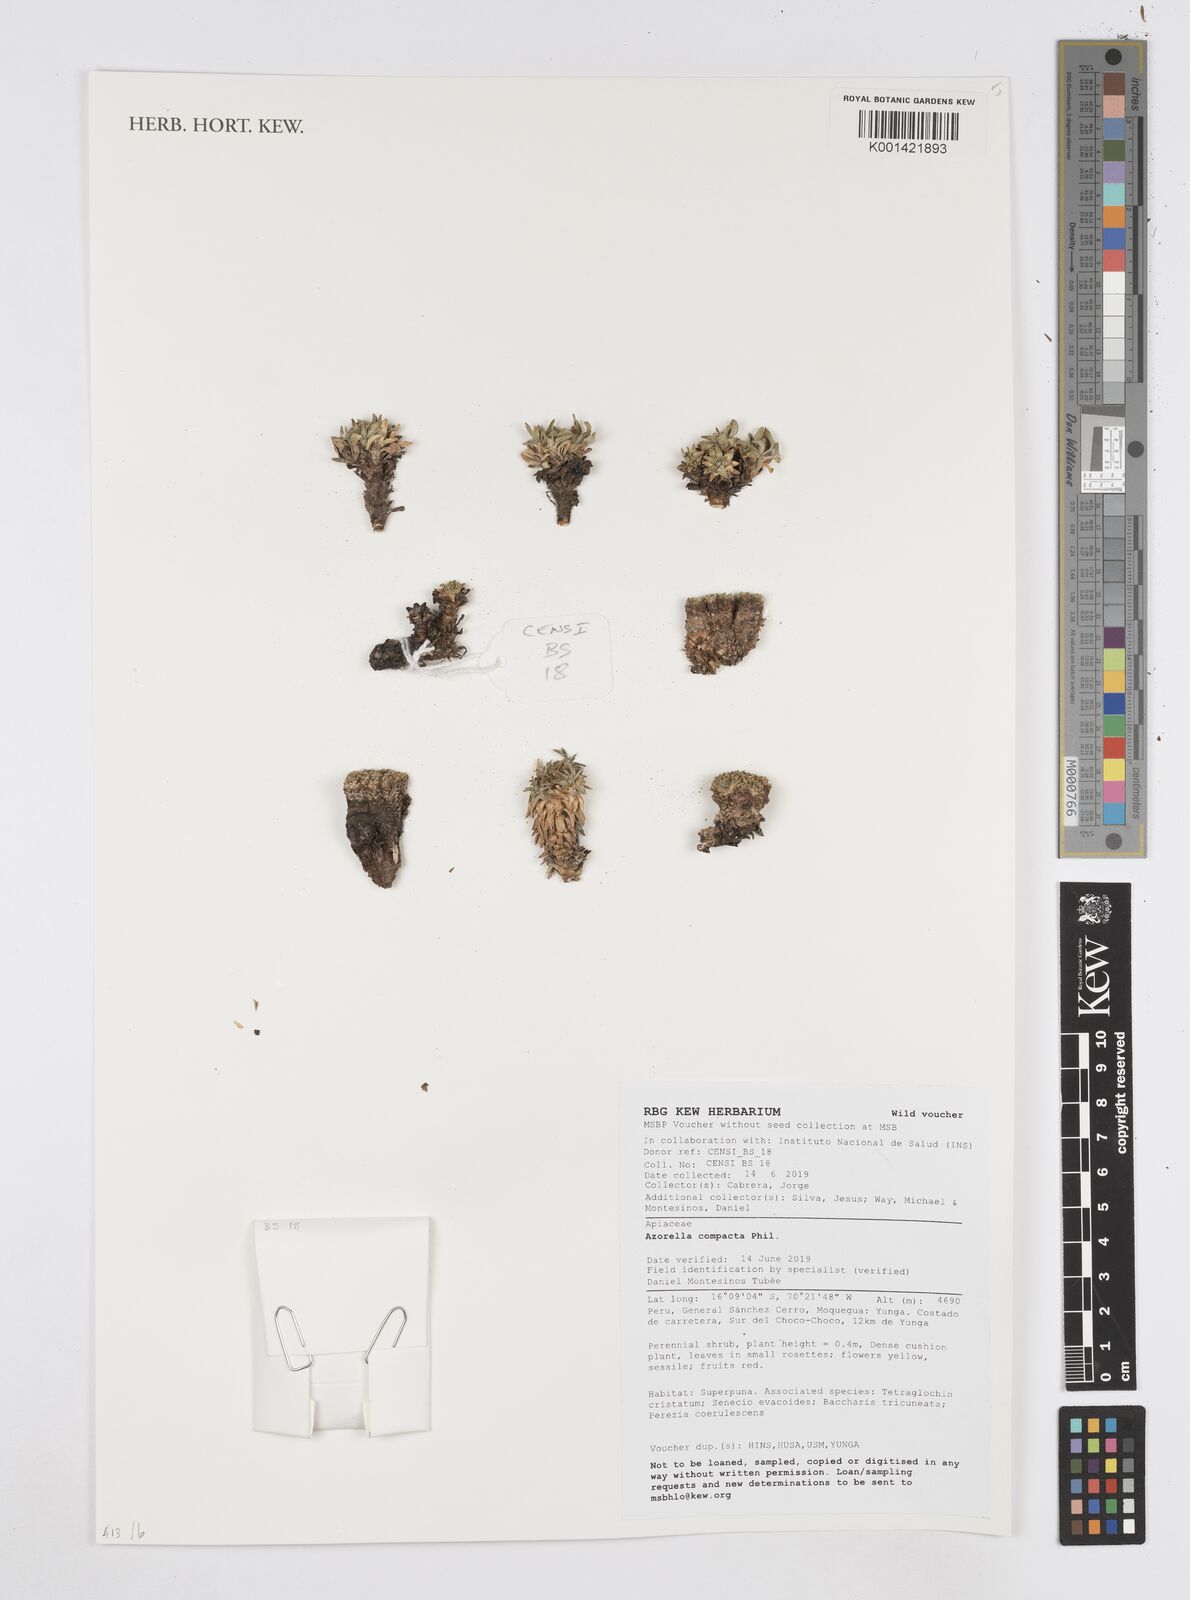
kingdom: Plantae
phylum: Tracheophyta
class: Magnoliopsida
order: Apiales
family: Apiaceae
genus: Azorella
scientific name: Azorella compacta
